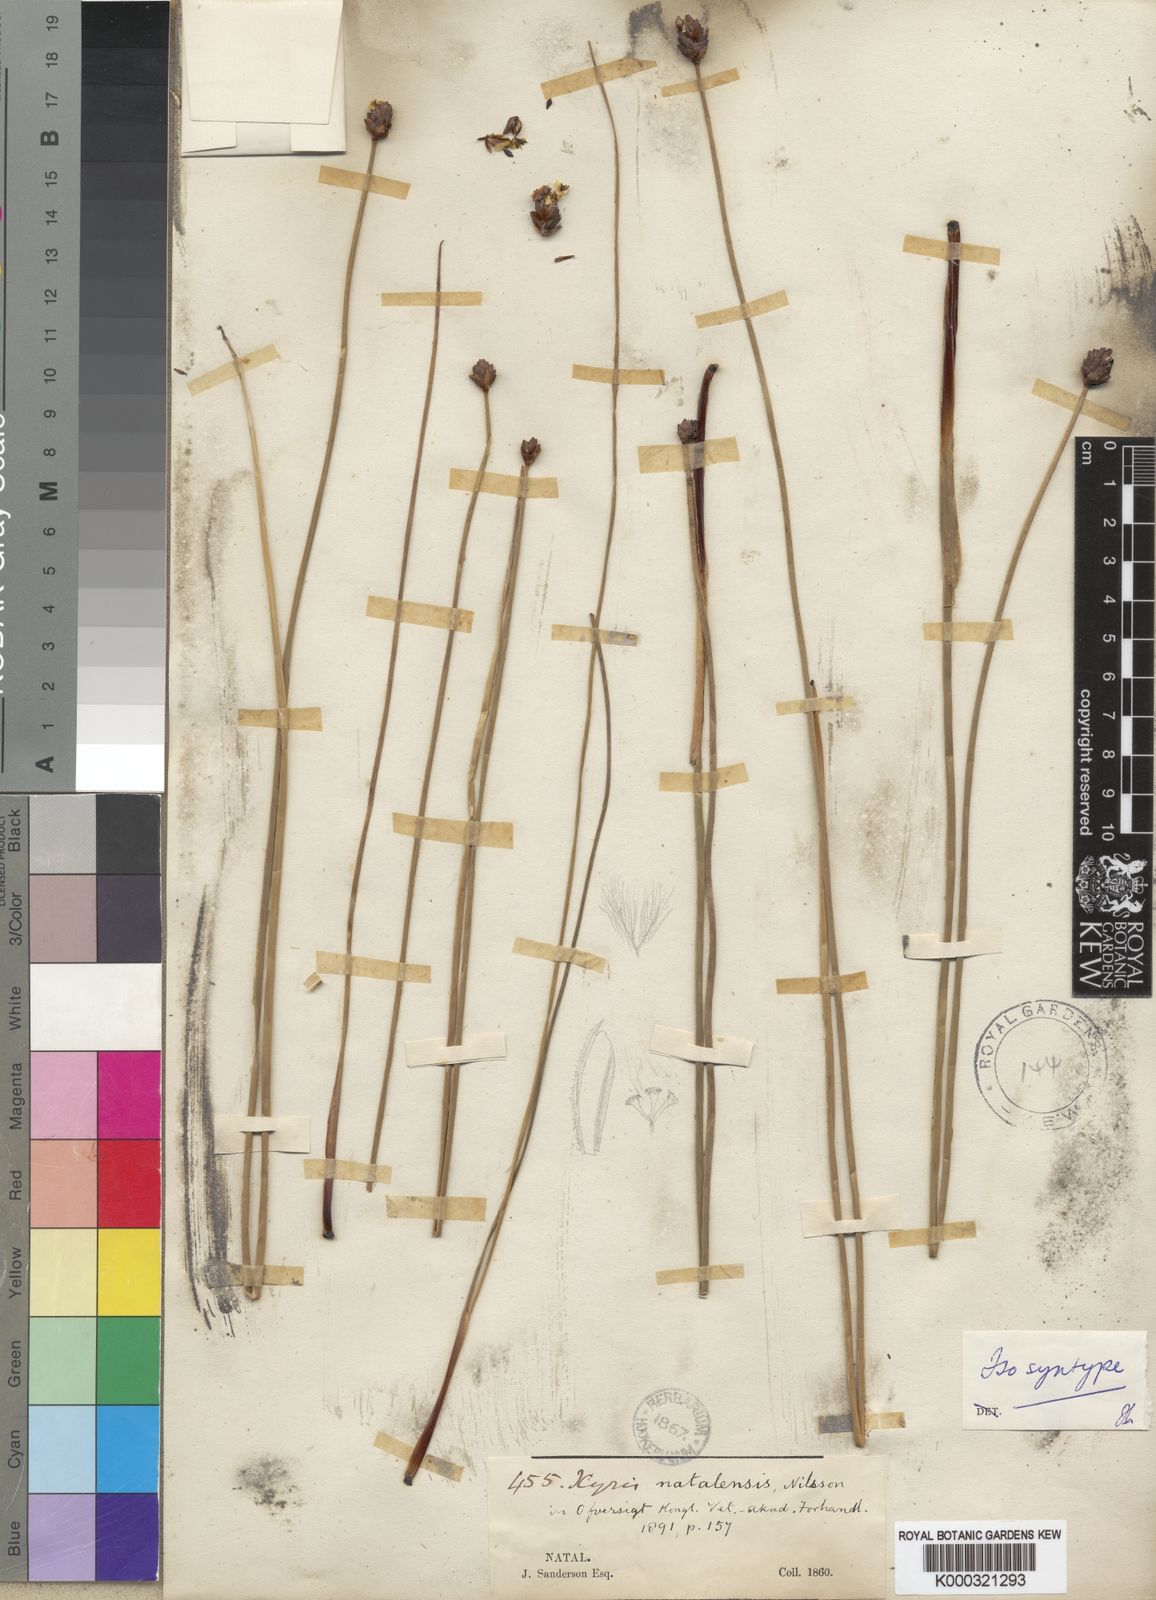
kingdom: Plantae
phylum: Tracheophyta
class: Liliopsida
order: Poales
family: Xyridaceae
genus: Xyris
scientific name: Xyris natalensis
